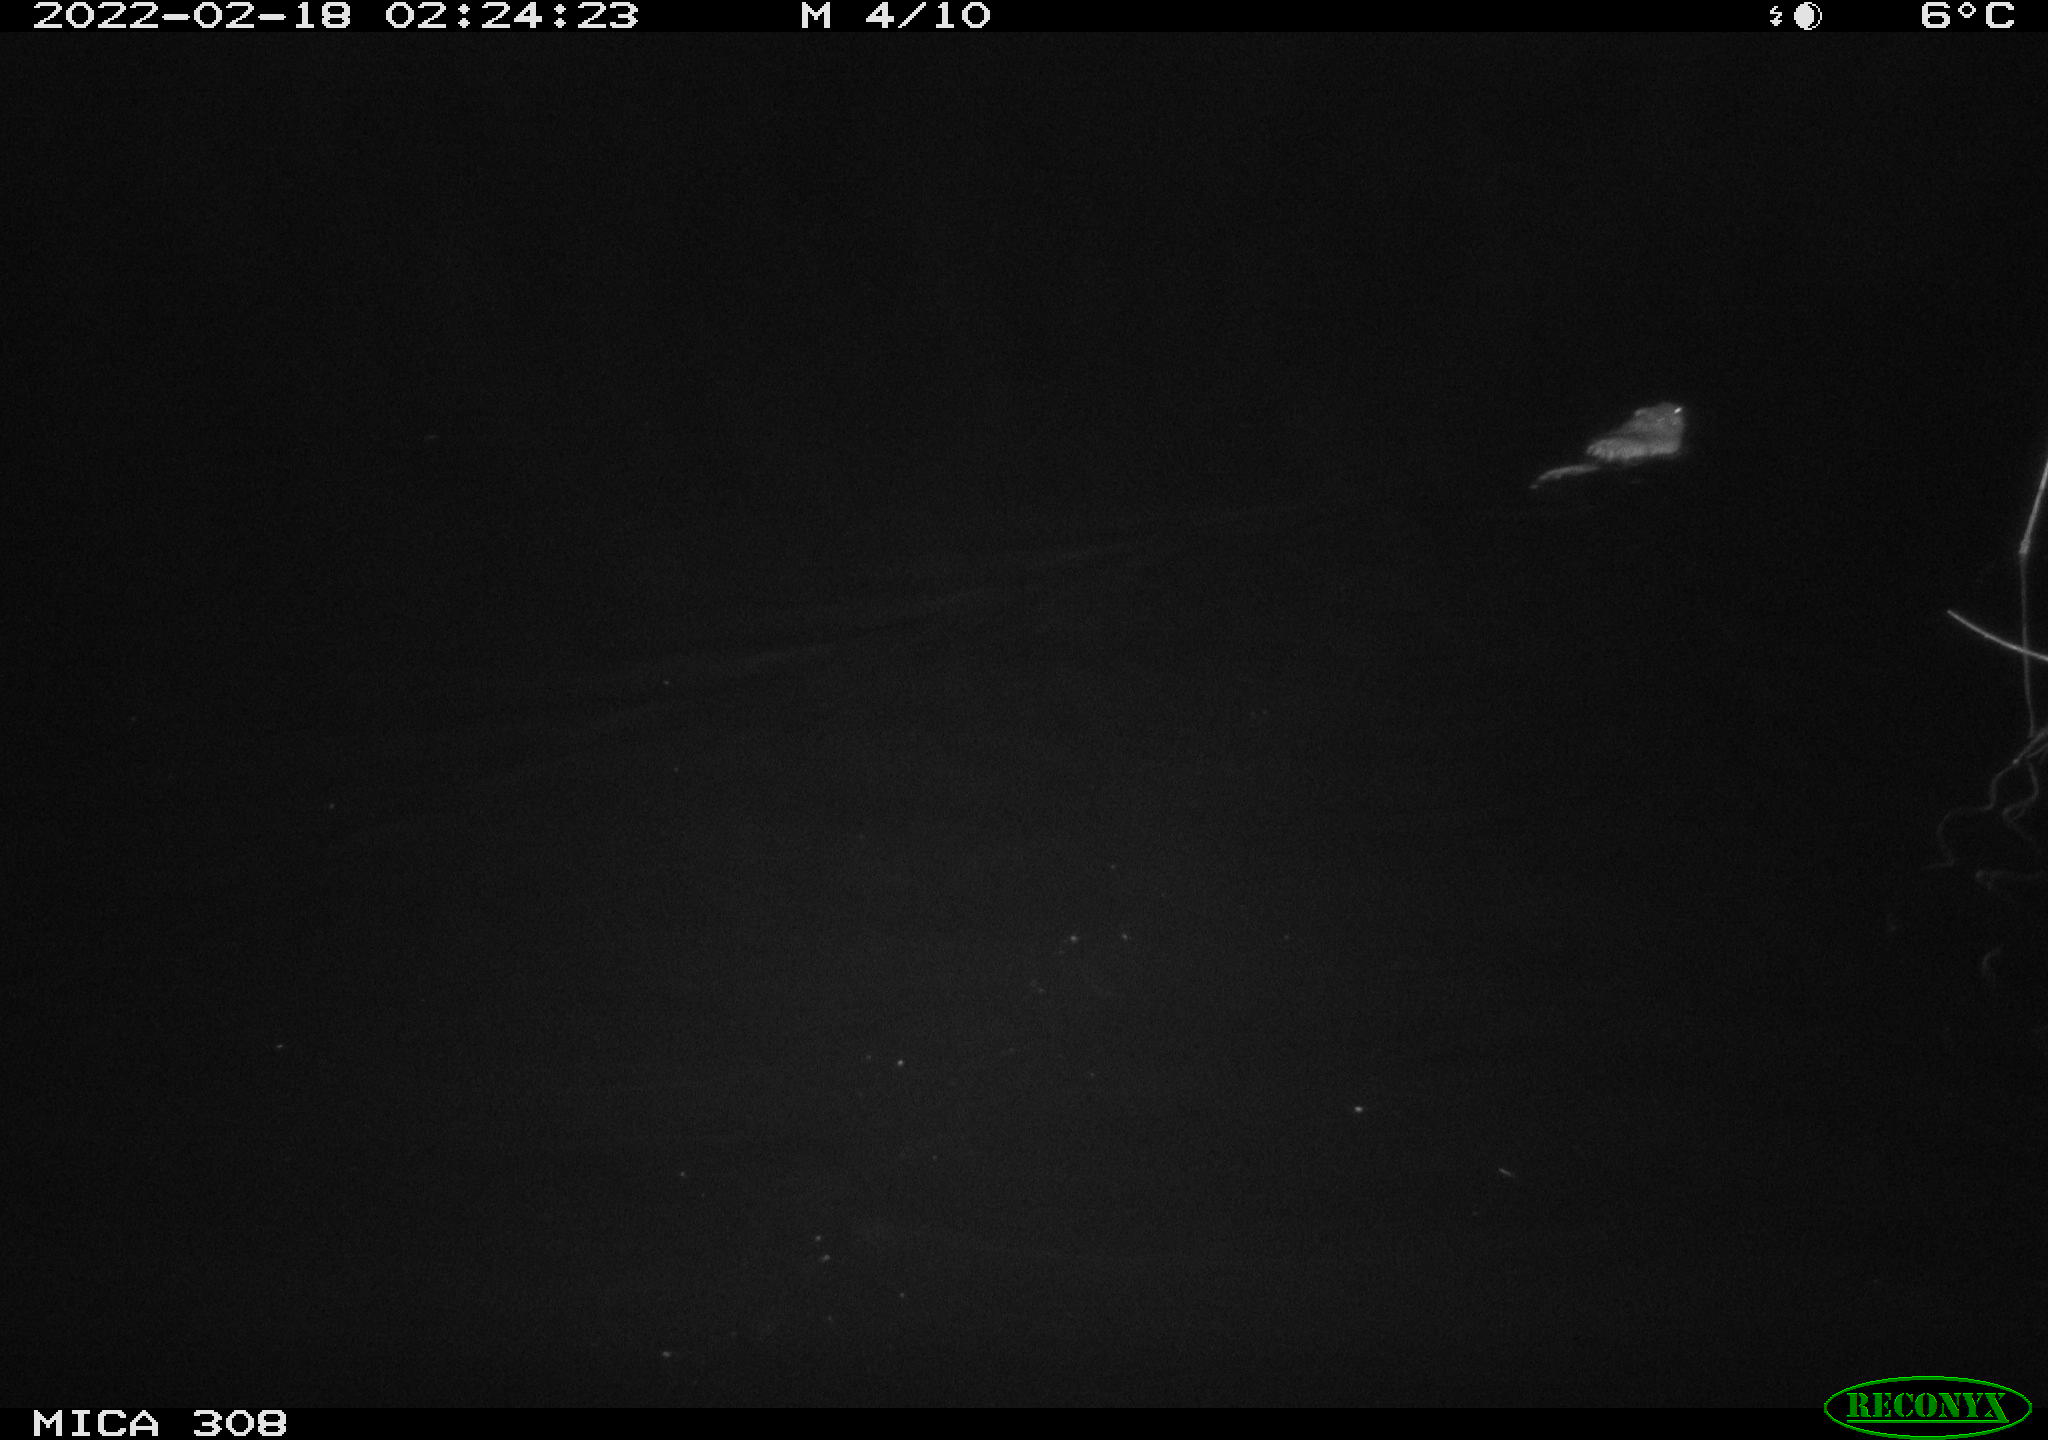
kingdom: Animalia
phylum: Chordata
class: Mammalia
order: Rodentia
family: Cricetidae
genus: Ondatra
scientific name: Ondatra zibethicus
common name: Muskrat
